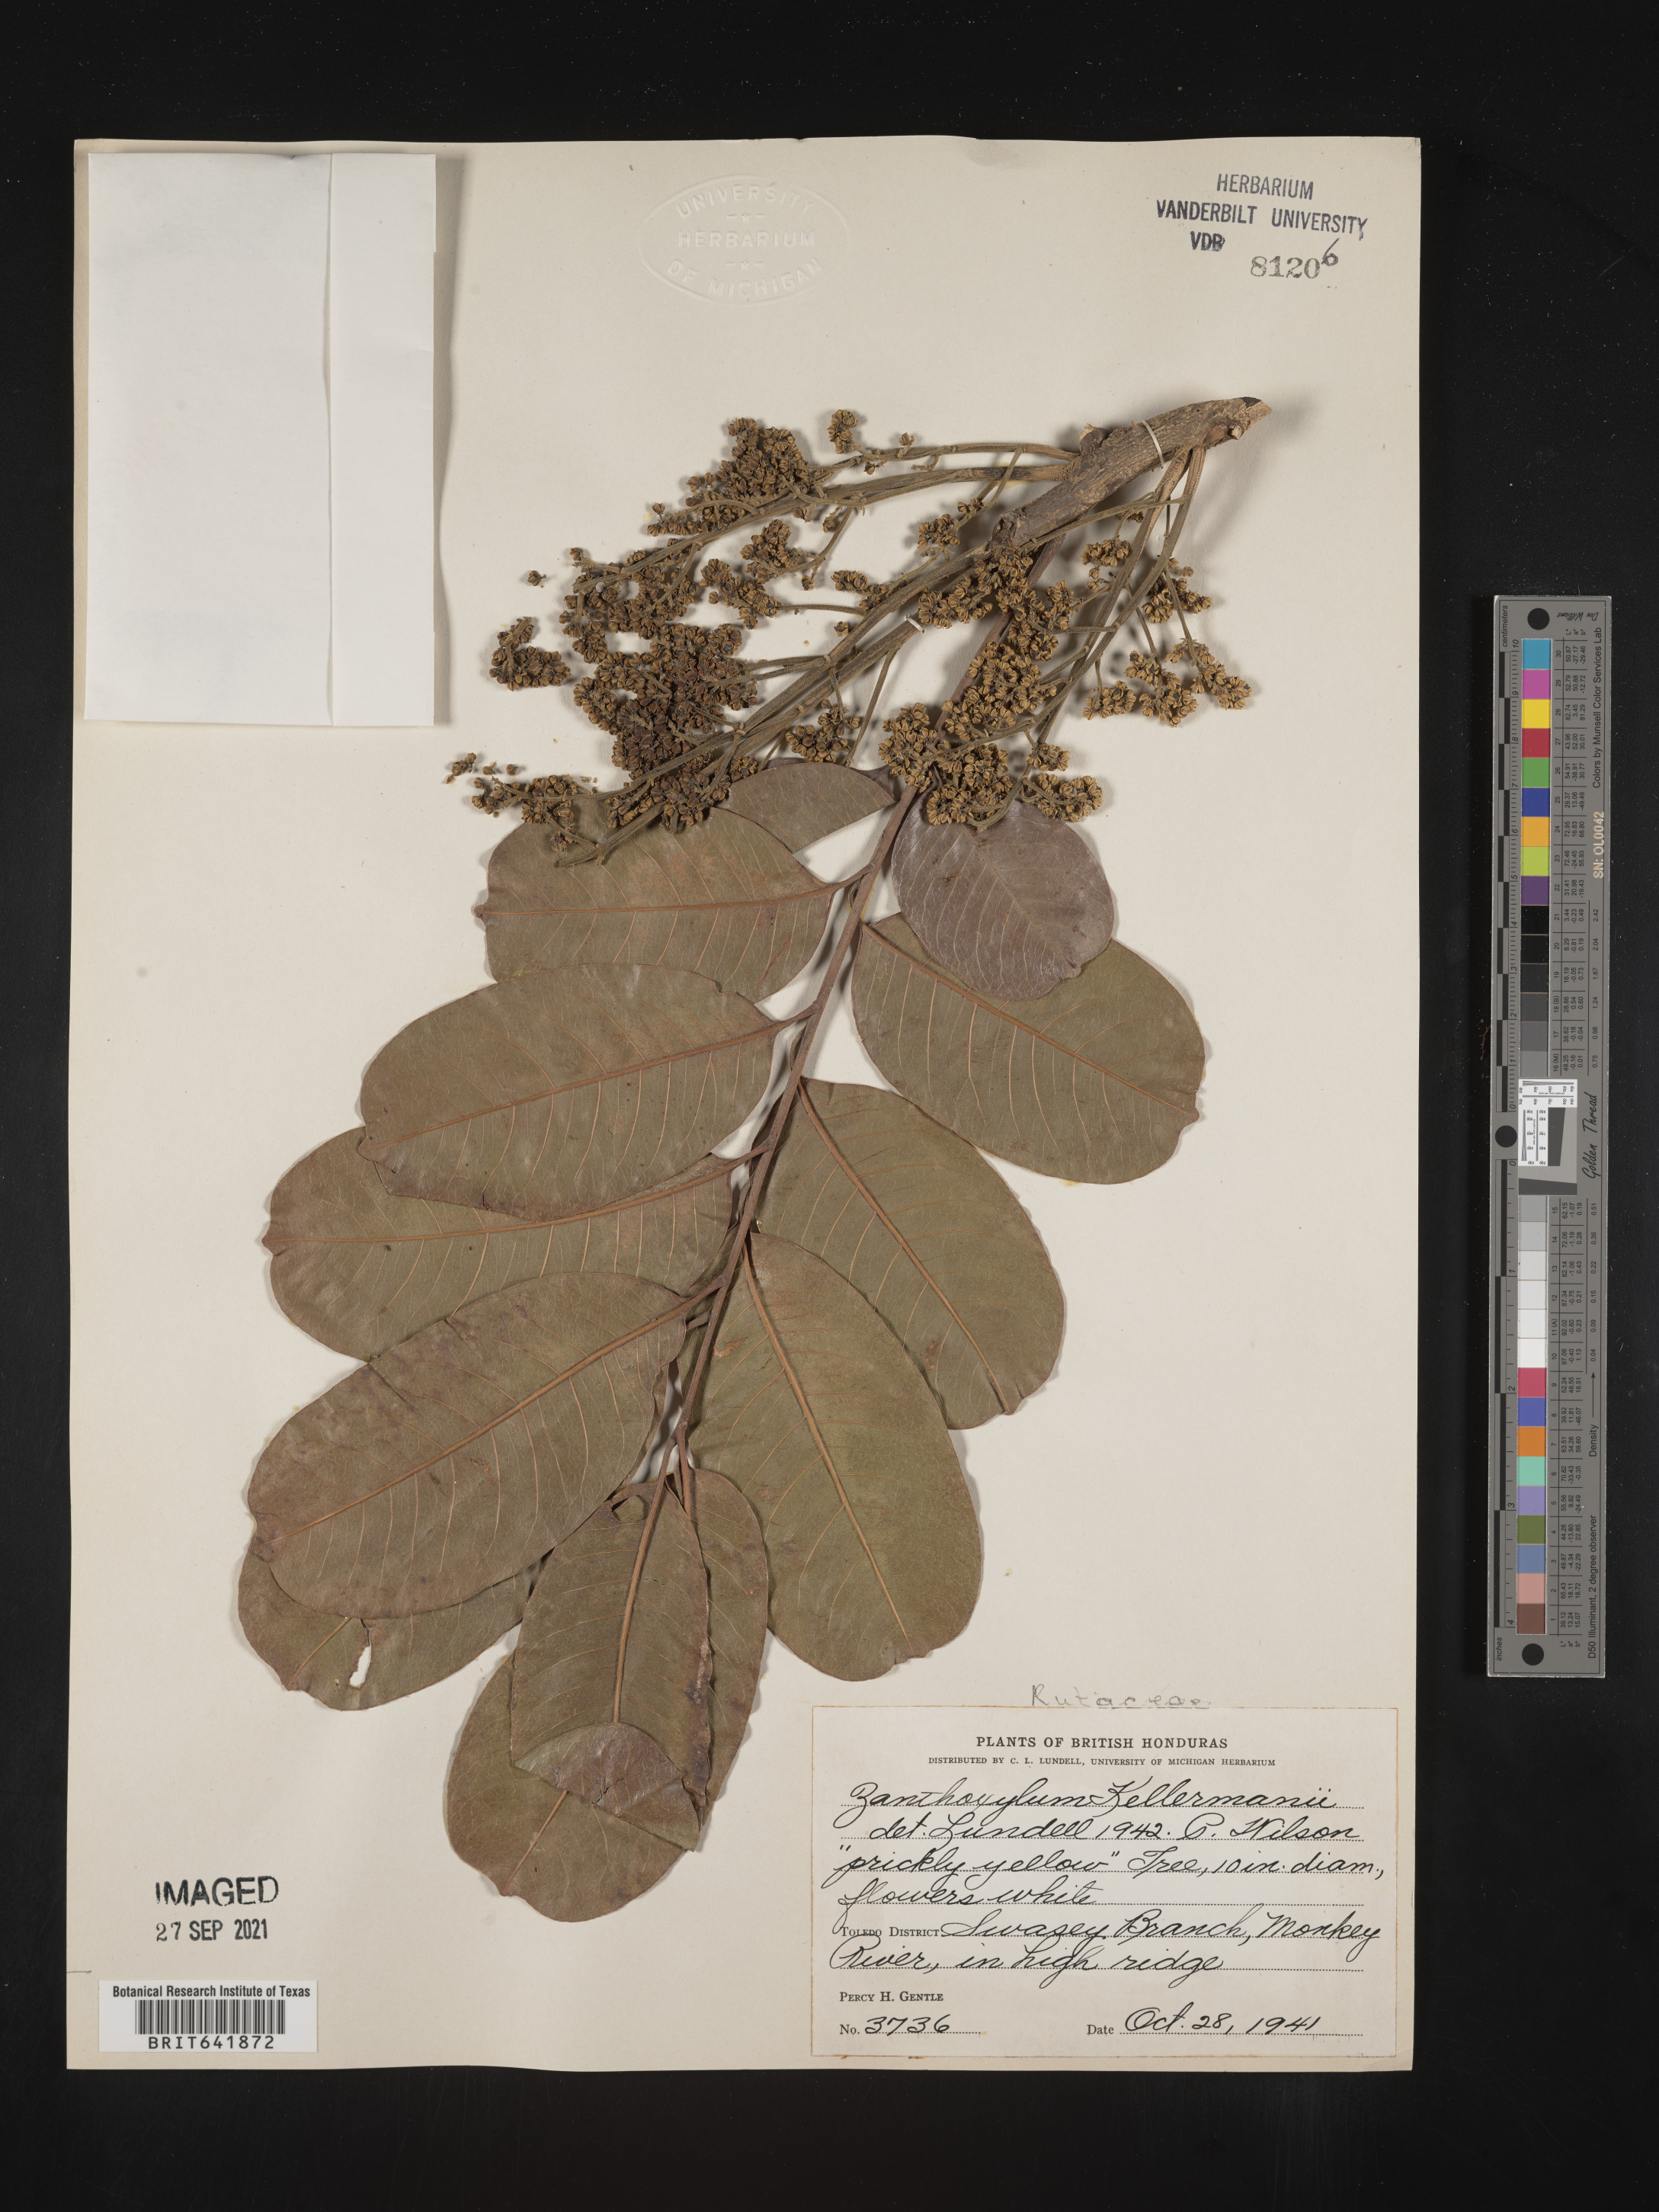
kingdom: Plantae
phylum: Tracheophyta
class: Magnoliopsida
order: Sapindales
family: Rutaceae
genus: Zanthoxylum
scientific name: Zanthoxylum
